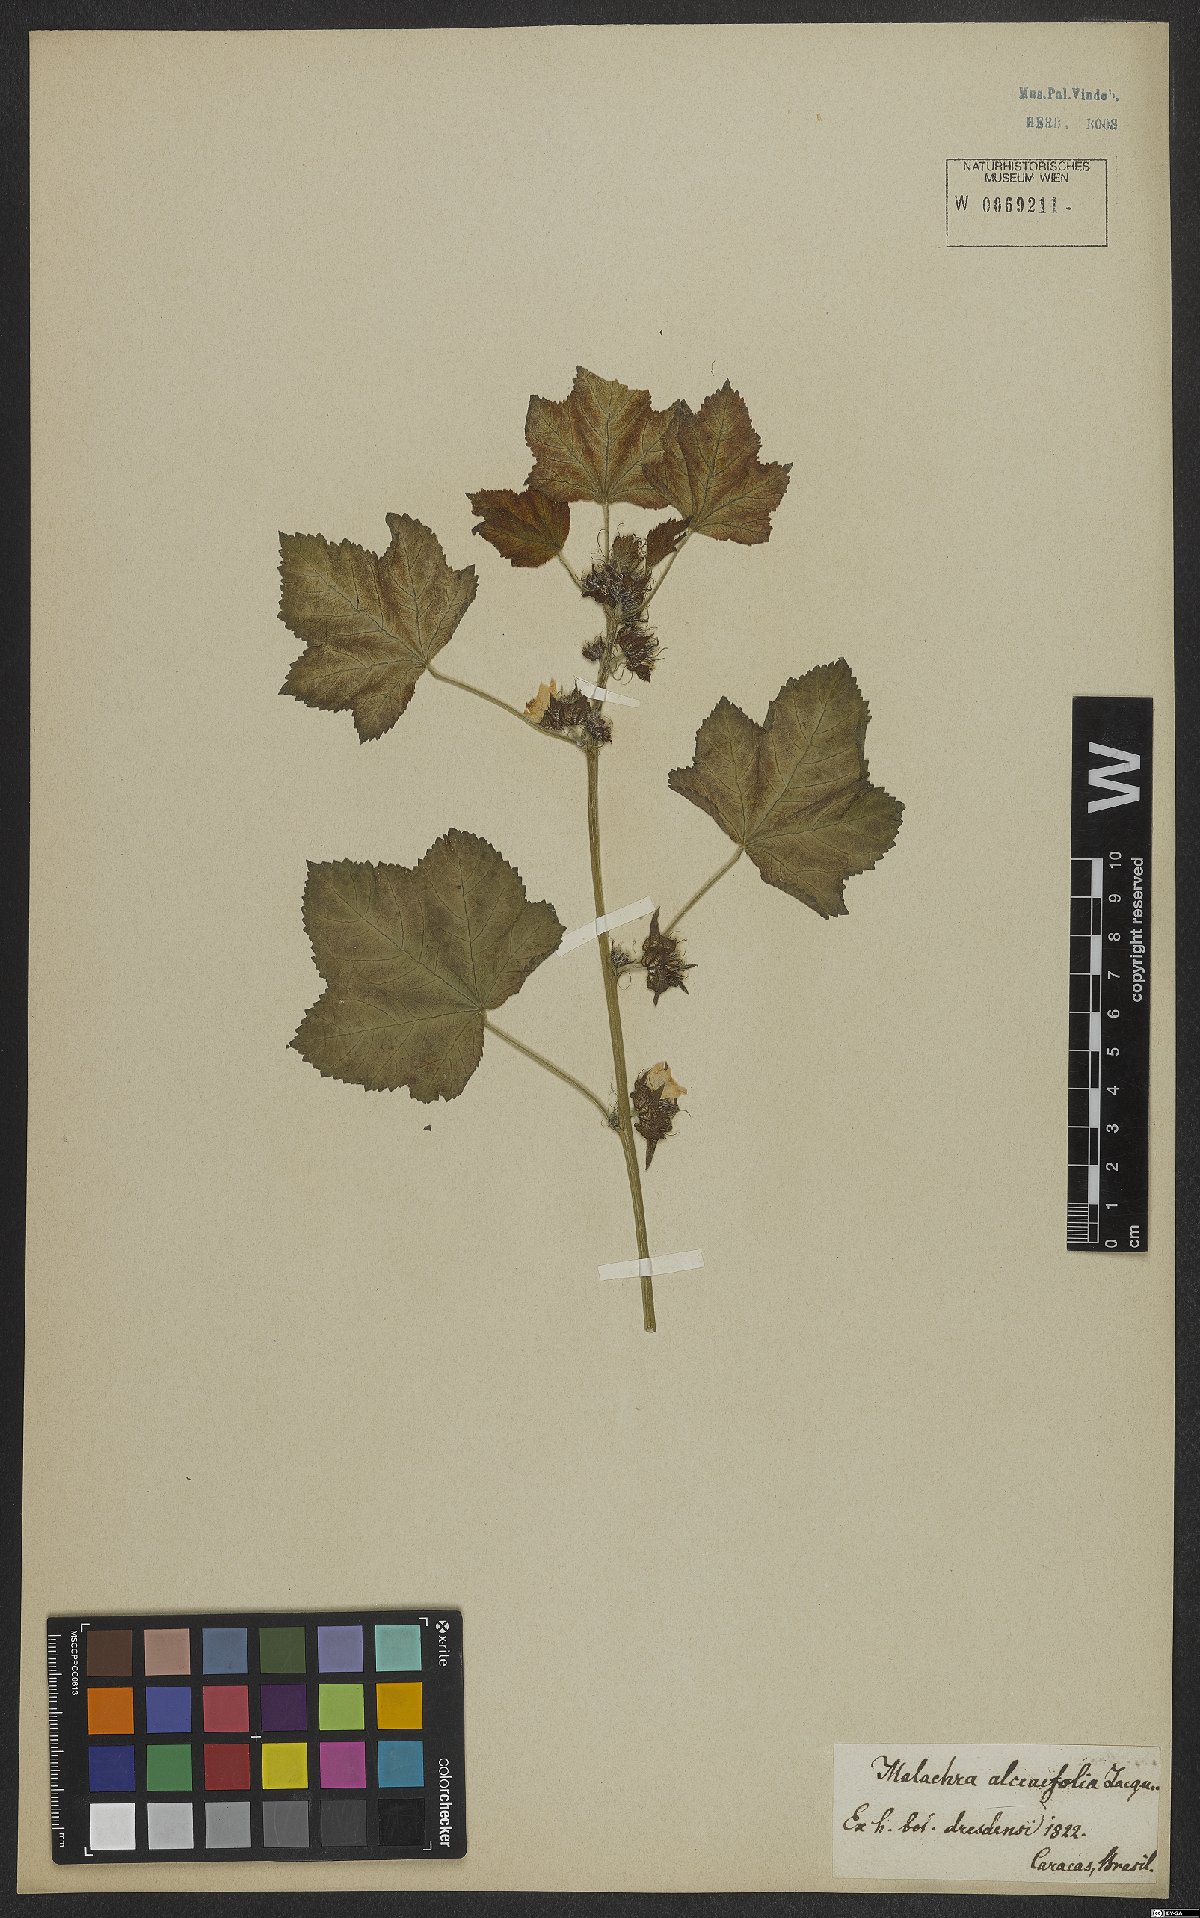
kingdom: Plantae
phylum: Tracheophyta
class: Magnoliopsida
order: Malvales
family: Malvaceae
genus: Malachra
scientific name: Malachra alceifolia
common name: Yellow leafbract
